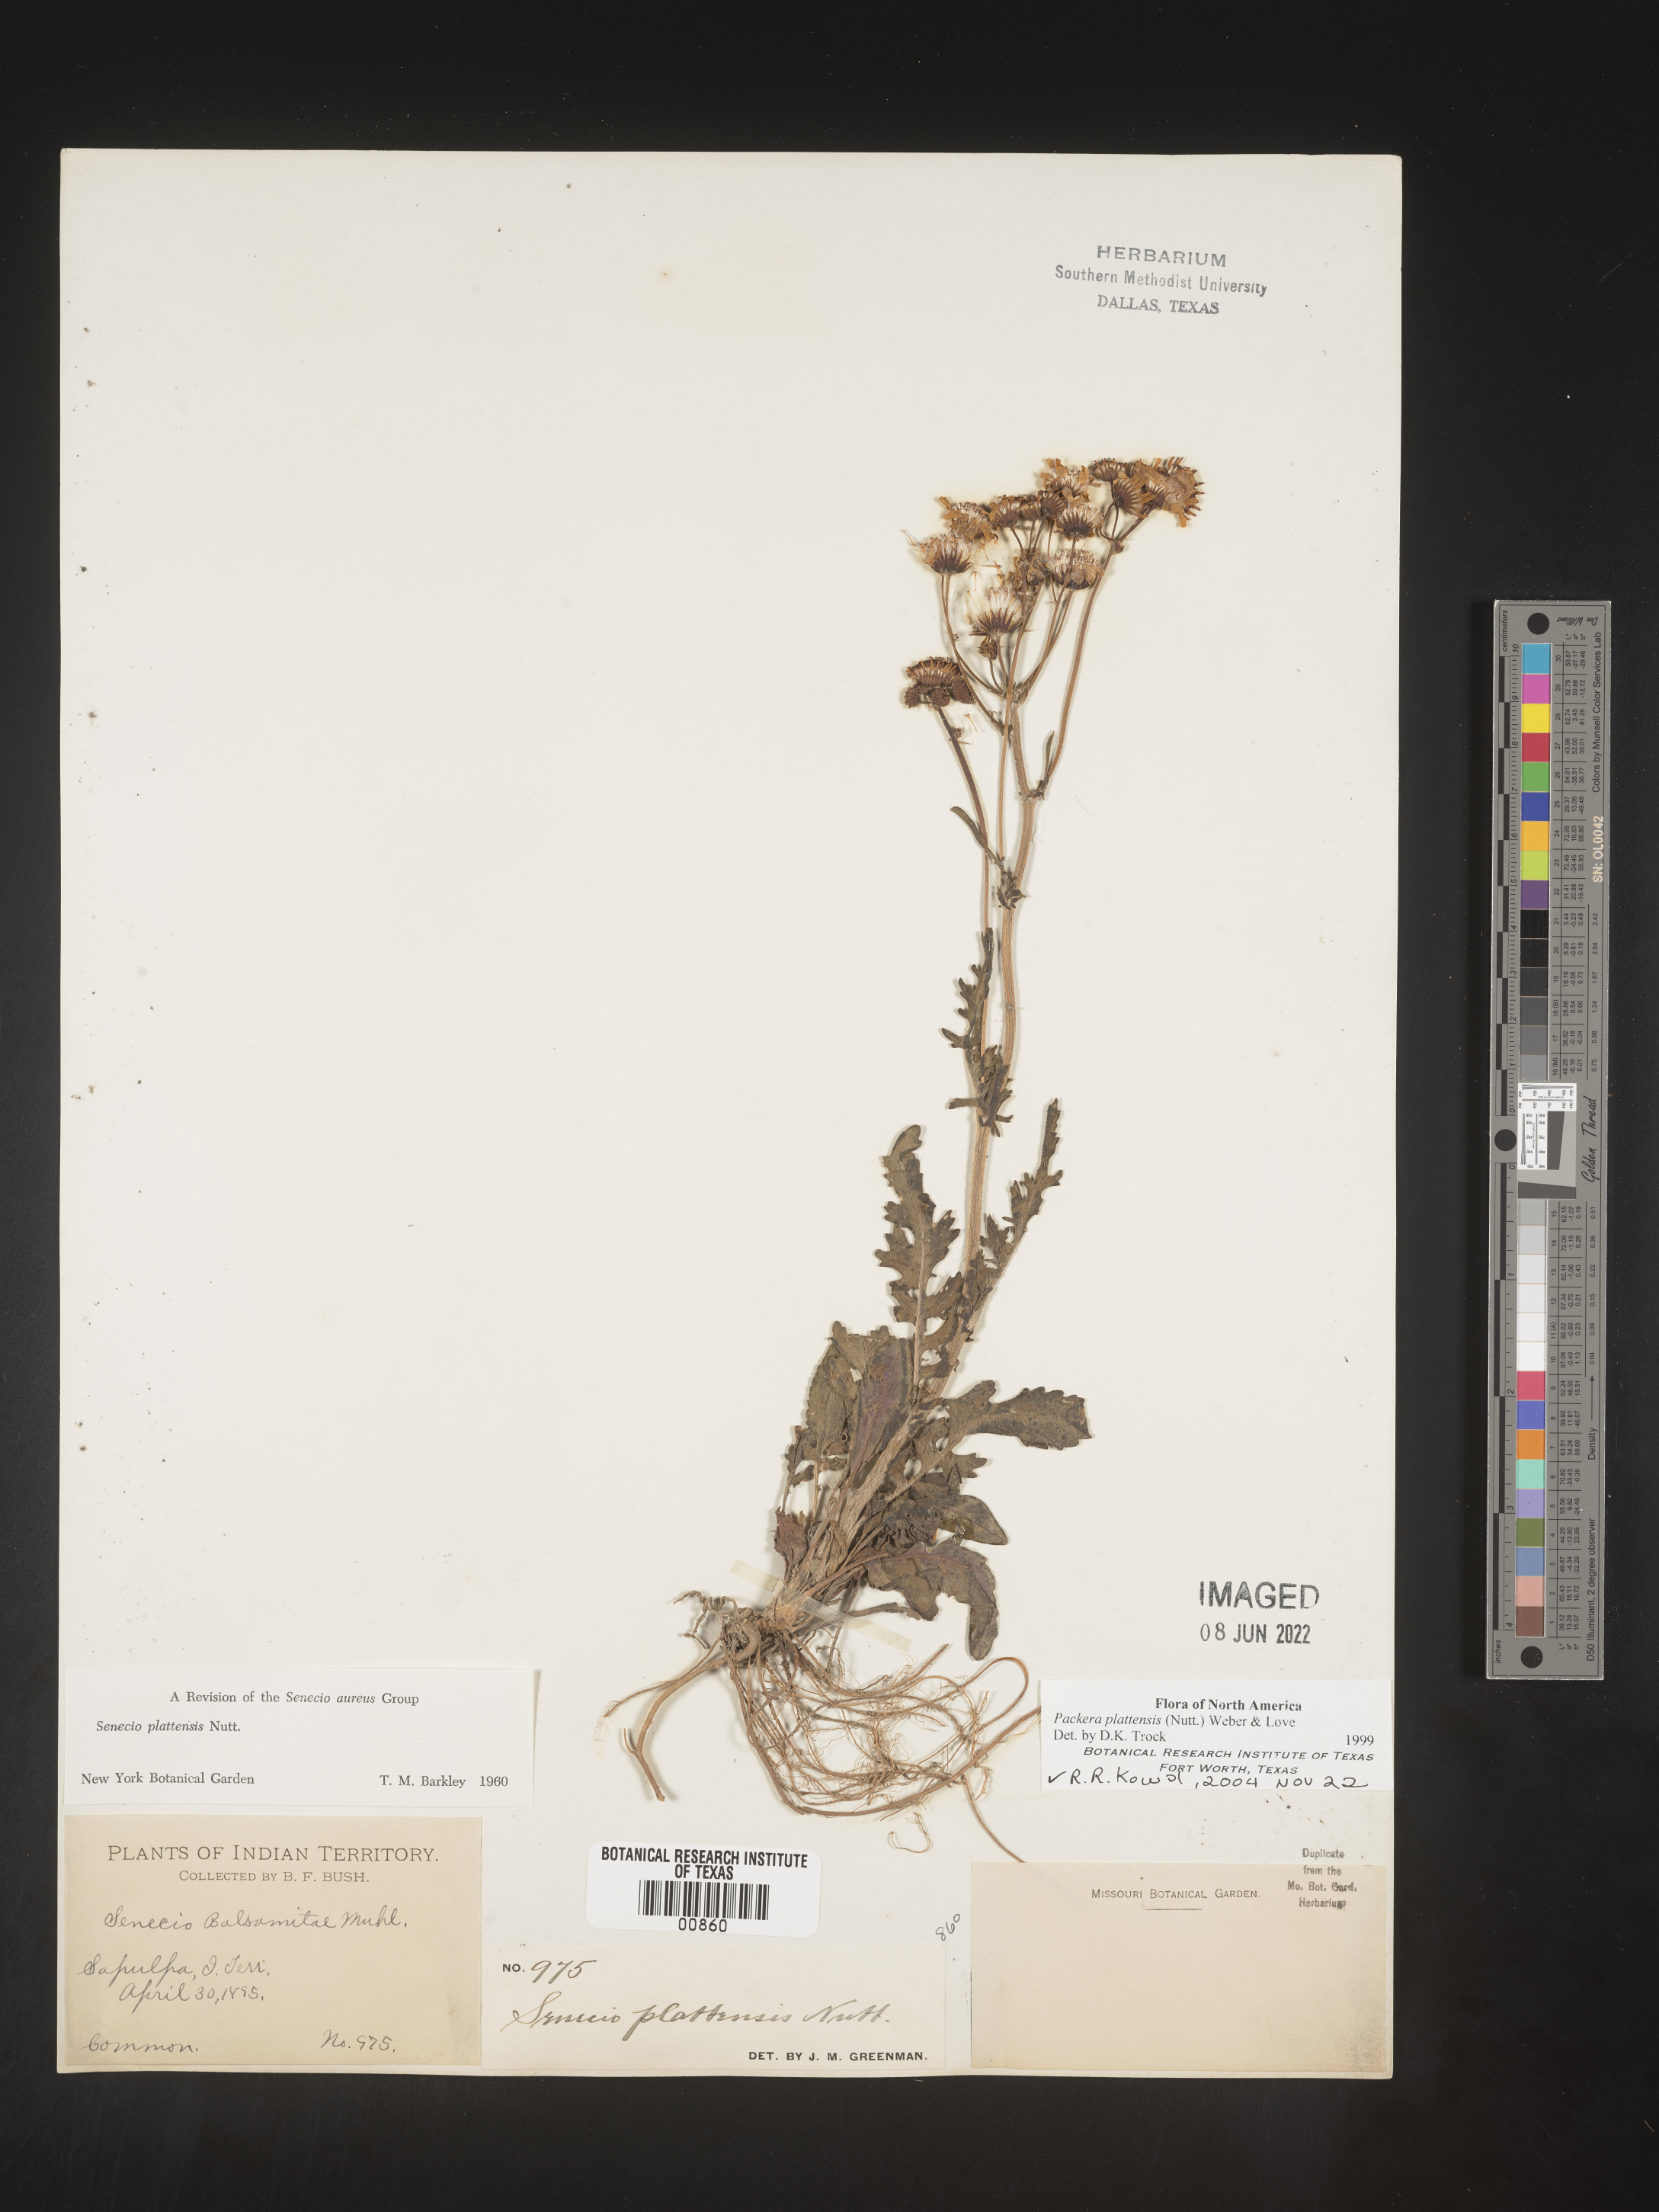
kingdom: Plantae
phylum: Tracheophyta
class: Magnoliopsida
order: Asterales
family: Asteraceae
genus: Packera
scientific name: Packera plattensis
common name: Prairie groundsel
